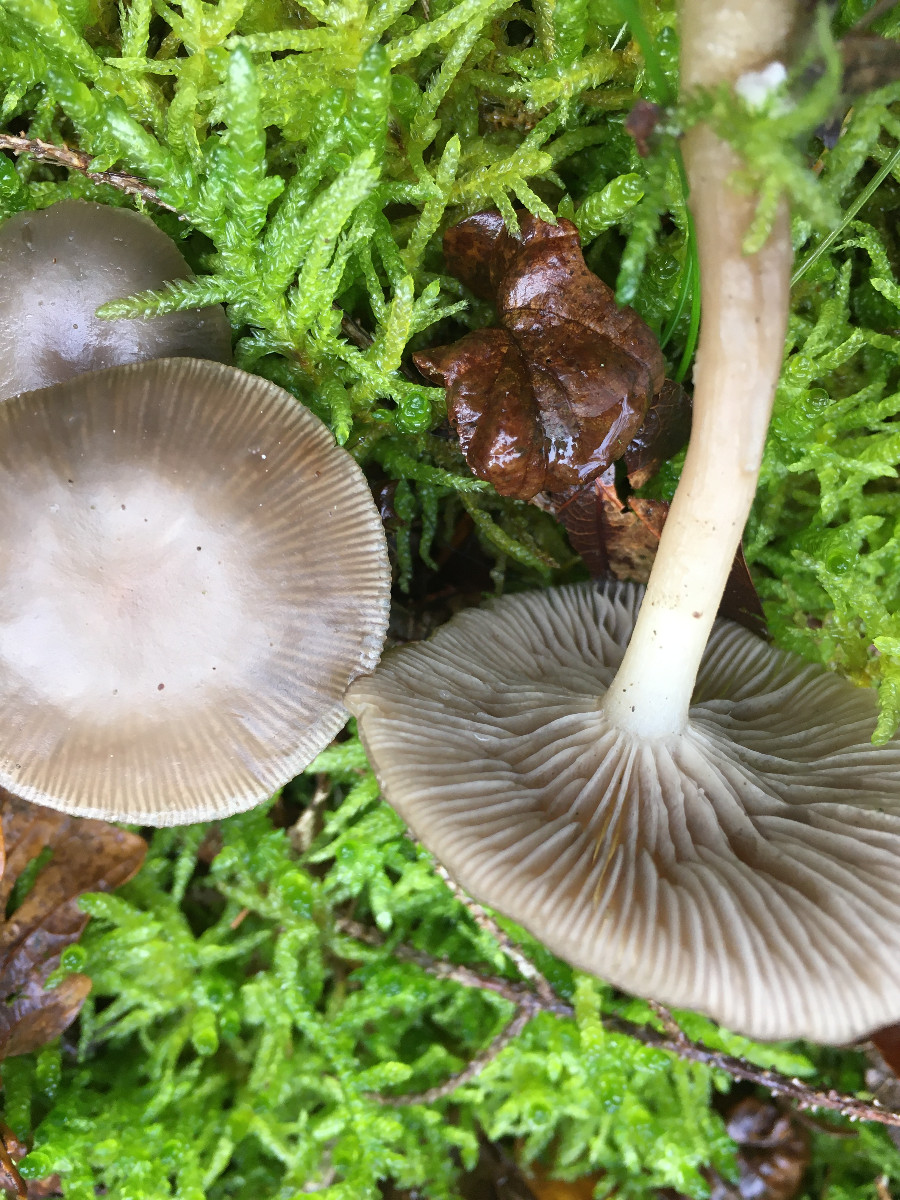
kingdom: Fungi
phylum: Basidiomycota
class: Agaricomycetes
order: Agaricales
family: Tricholomataceae
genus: Clitocybe
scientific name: Clitocybe
